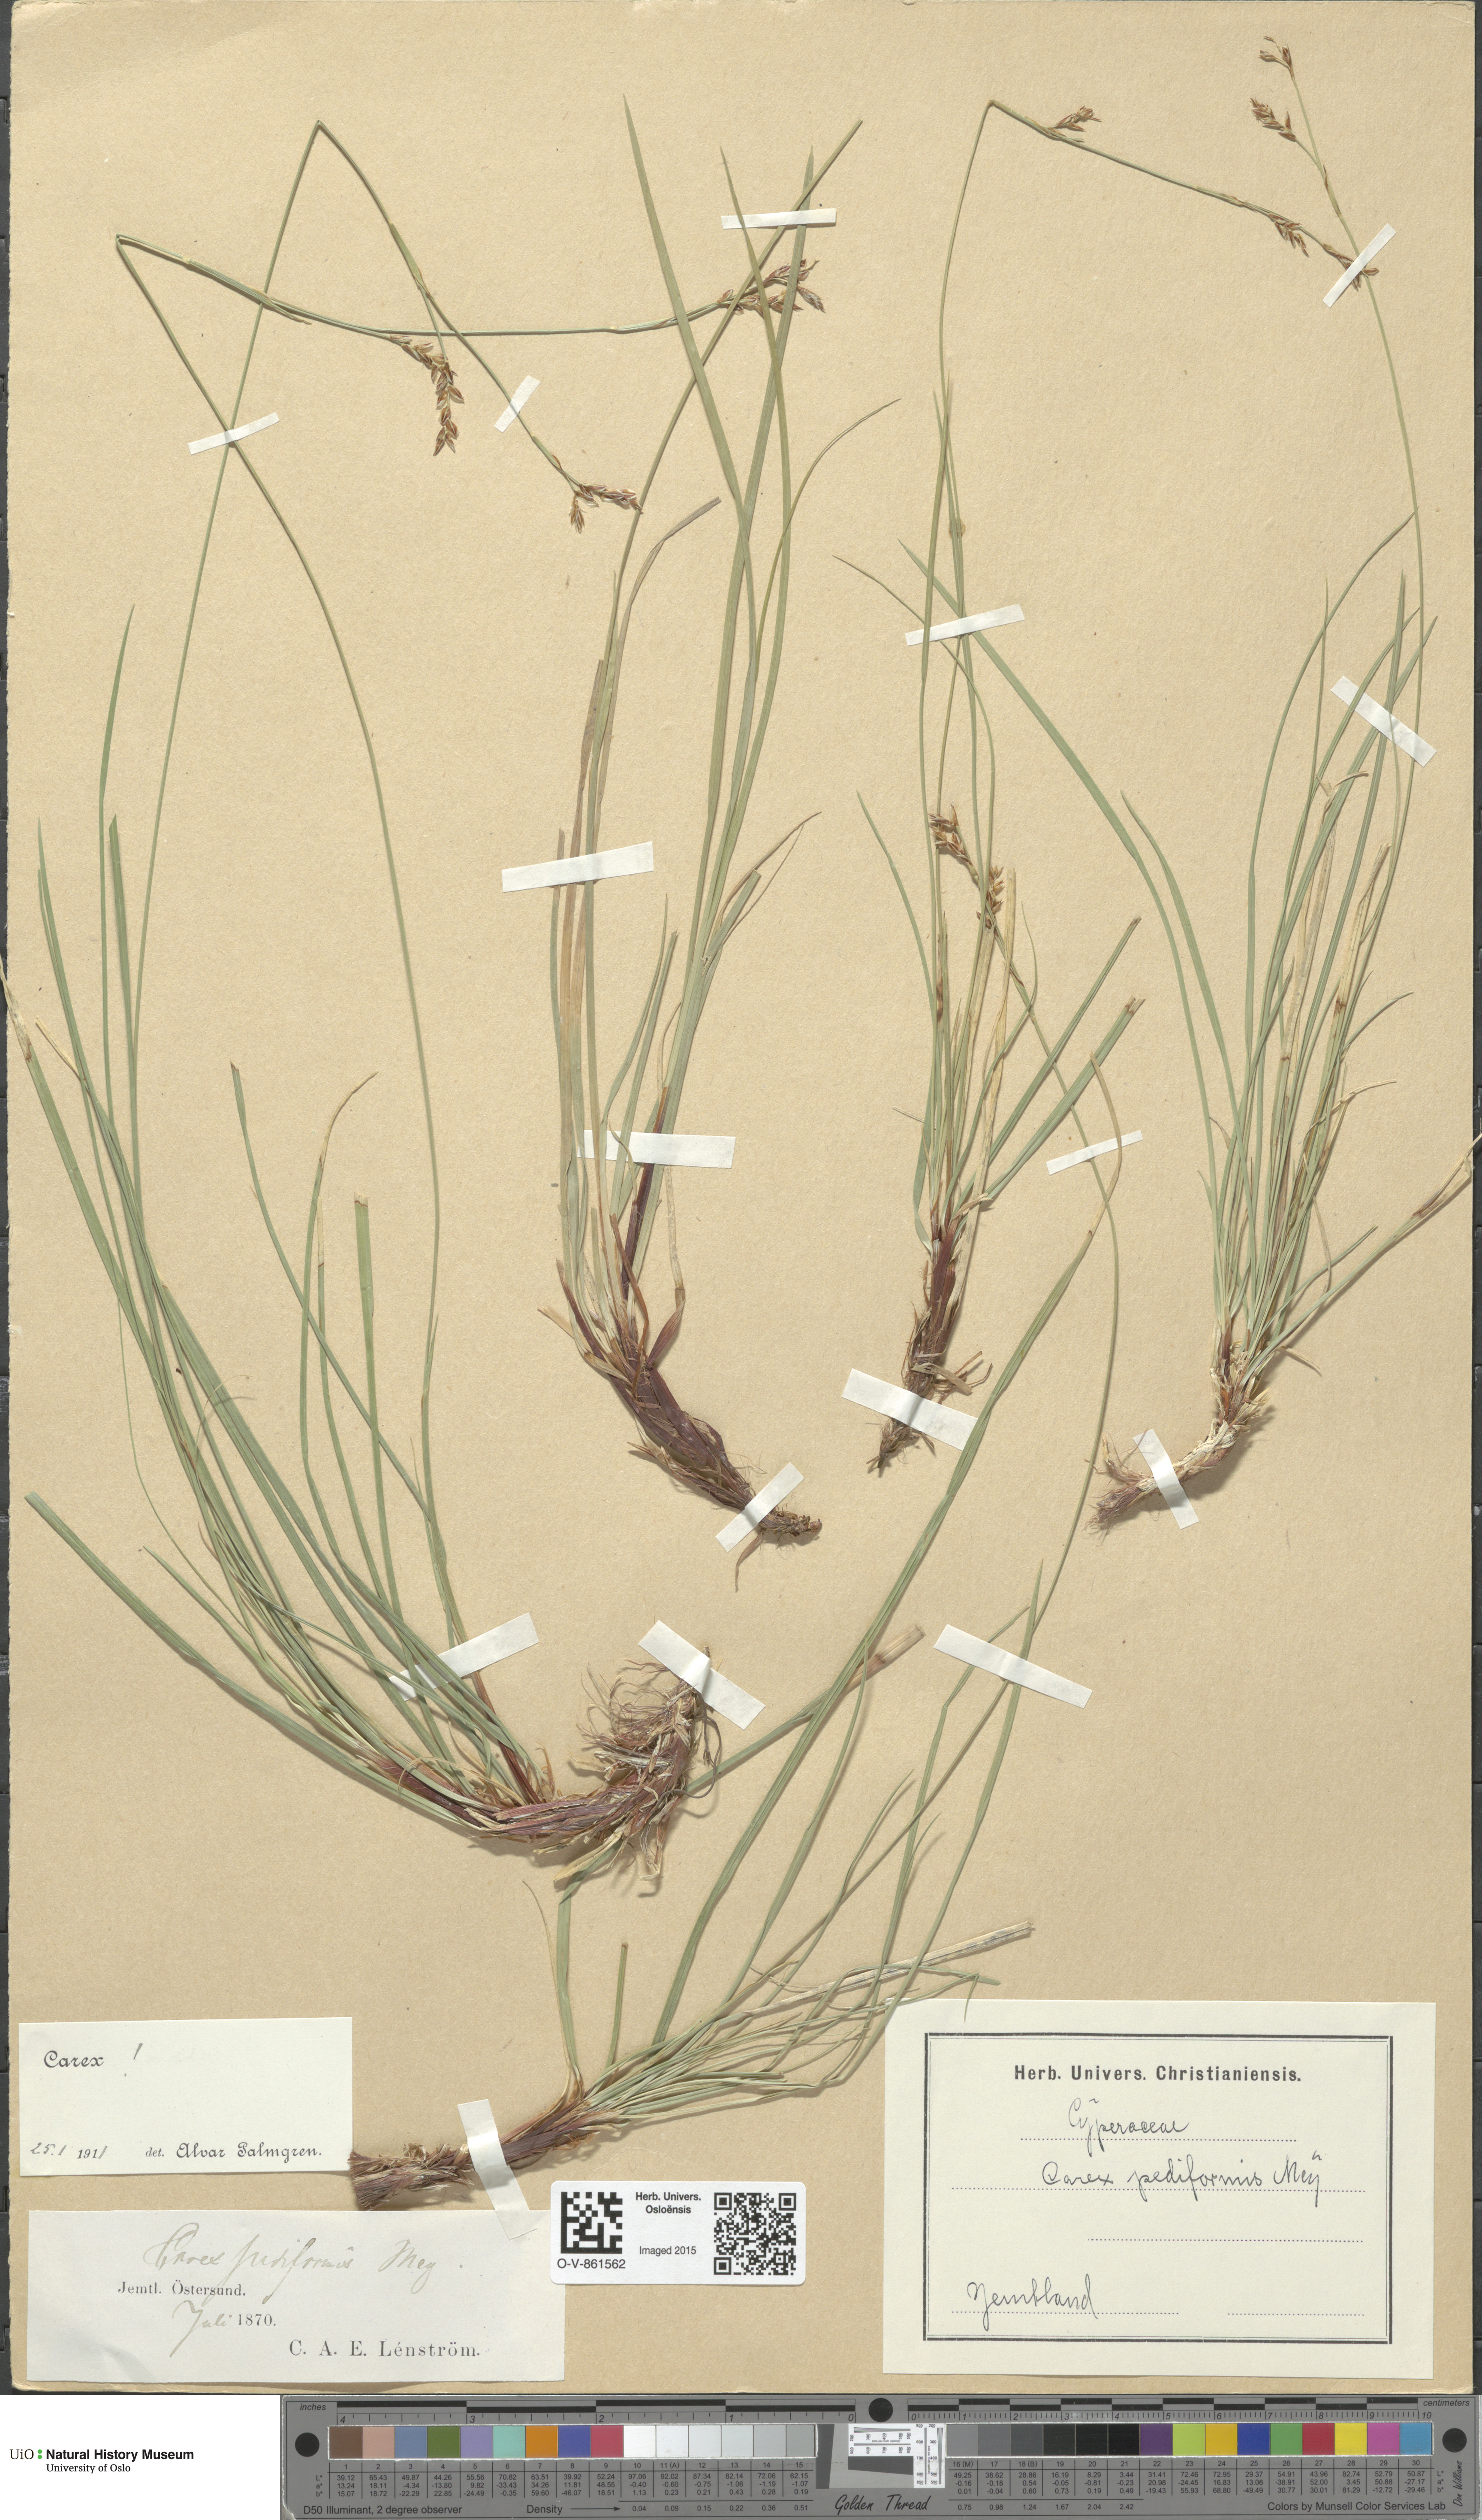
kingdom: Plantae
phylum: Tracheophyta
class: Liliopsida
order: Poales
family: Cyperaceae
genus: Carex
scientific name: Carex rhizina
